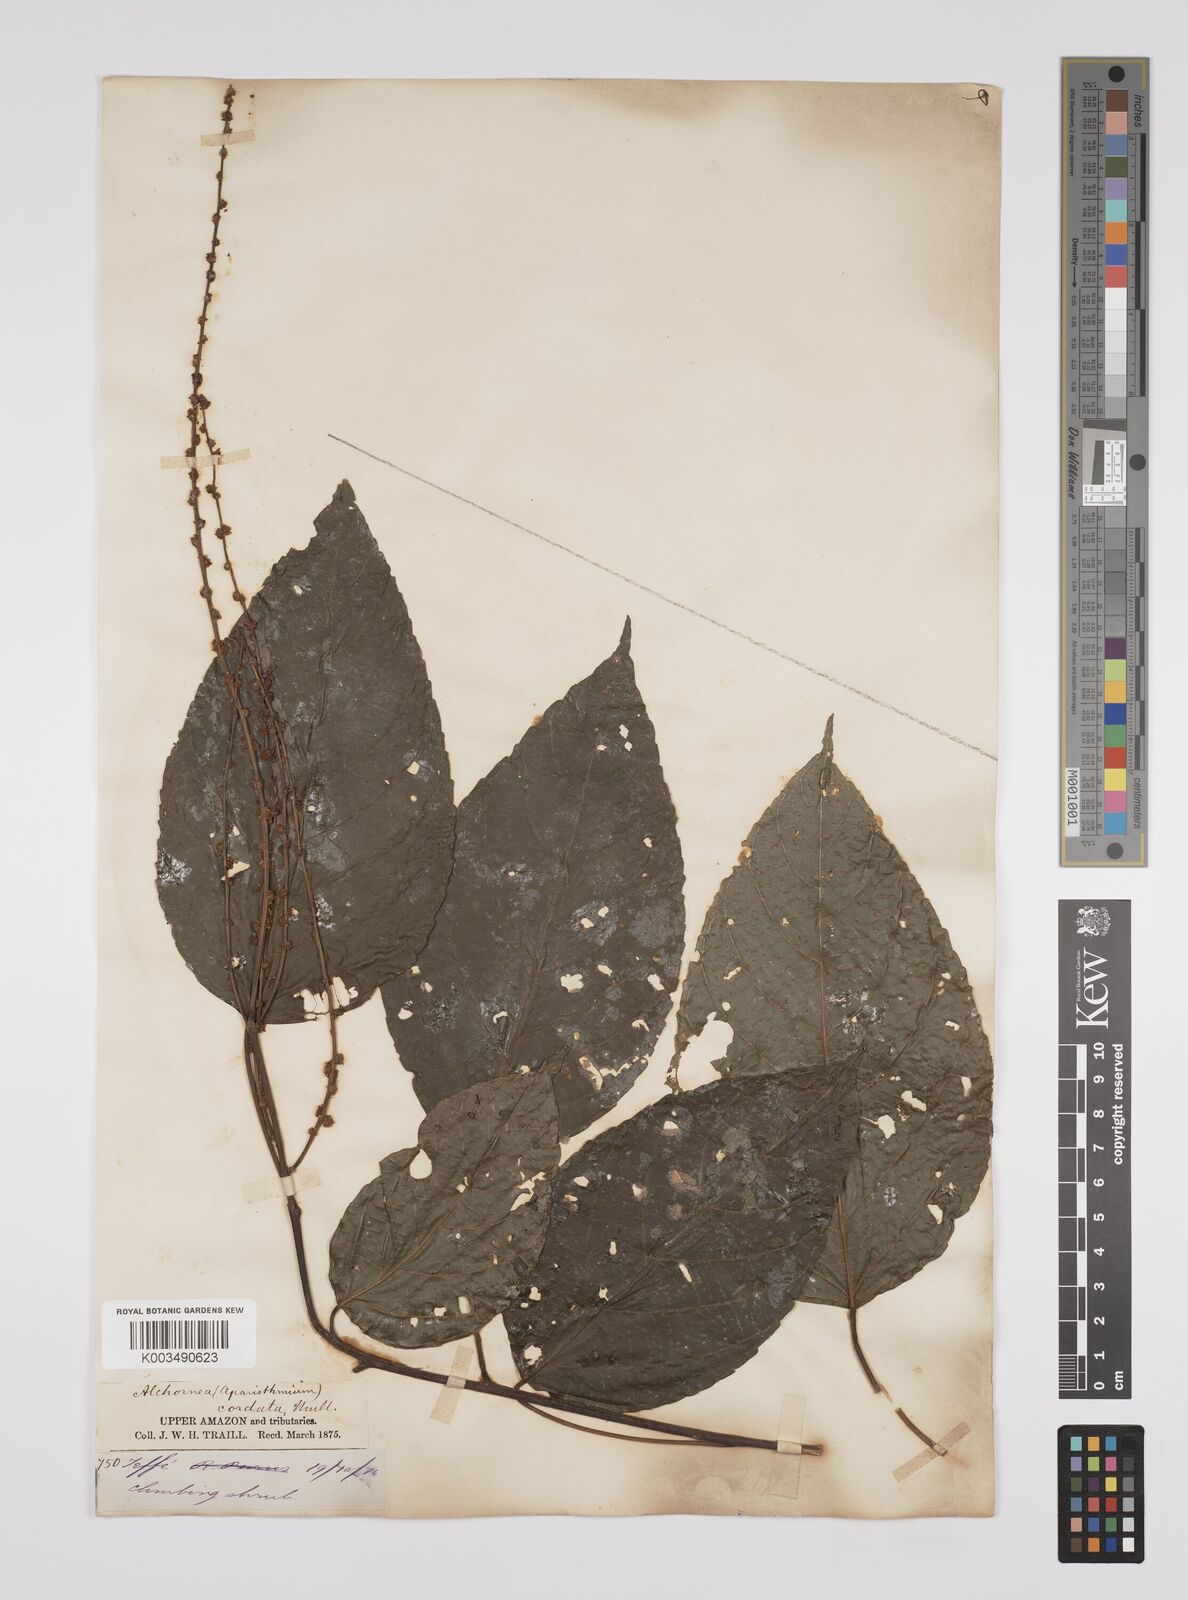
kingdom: Plantae
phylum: Tracheophyta
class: Magnoliopsida
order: Malpighiales
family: Euphorbiaceae
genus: Aparisthmium
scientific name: Aparisthmium cordatum
